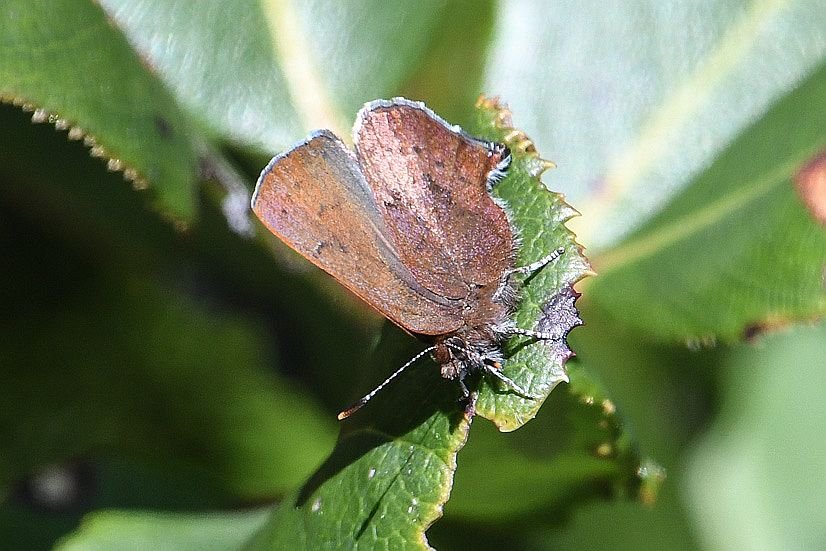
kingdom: Animalia
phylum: Arthropoda
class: Insecta
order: Lepidoptera
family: Lycaenidae
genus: Incisalia
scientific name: Incisalia irioides
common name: Brown Elfin
